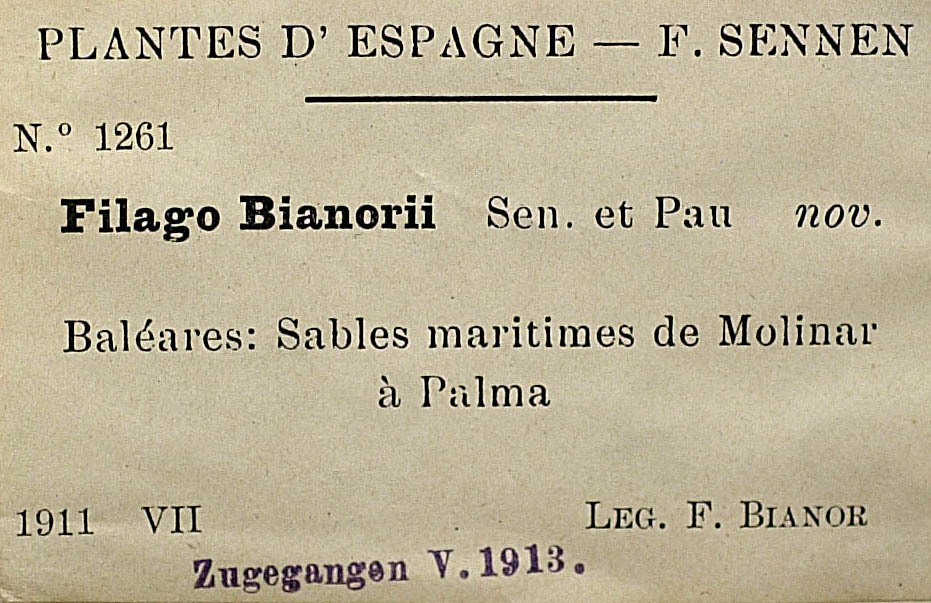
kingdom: Plantae
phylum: Tracheophyta
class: Magnoliopsida
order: Asterales
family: Asteraceae
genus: Filago
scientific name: Filago congesta
